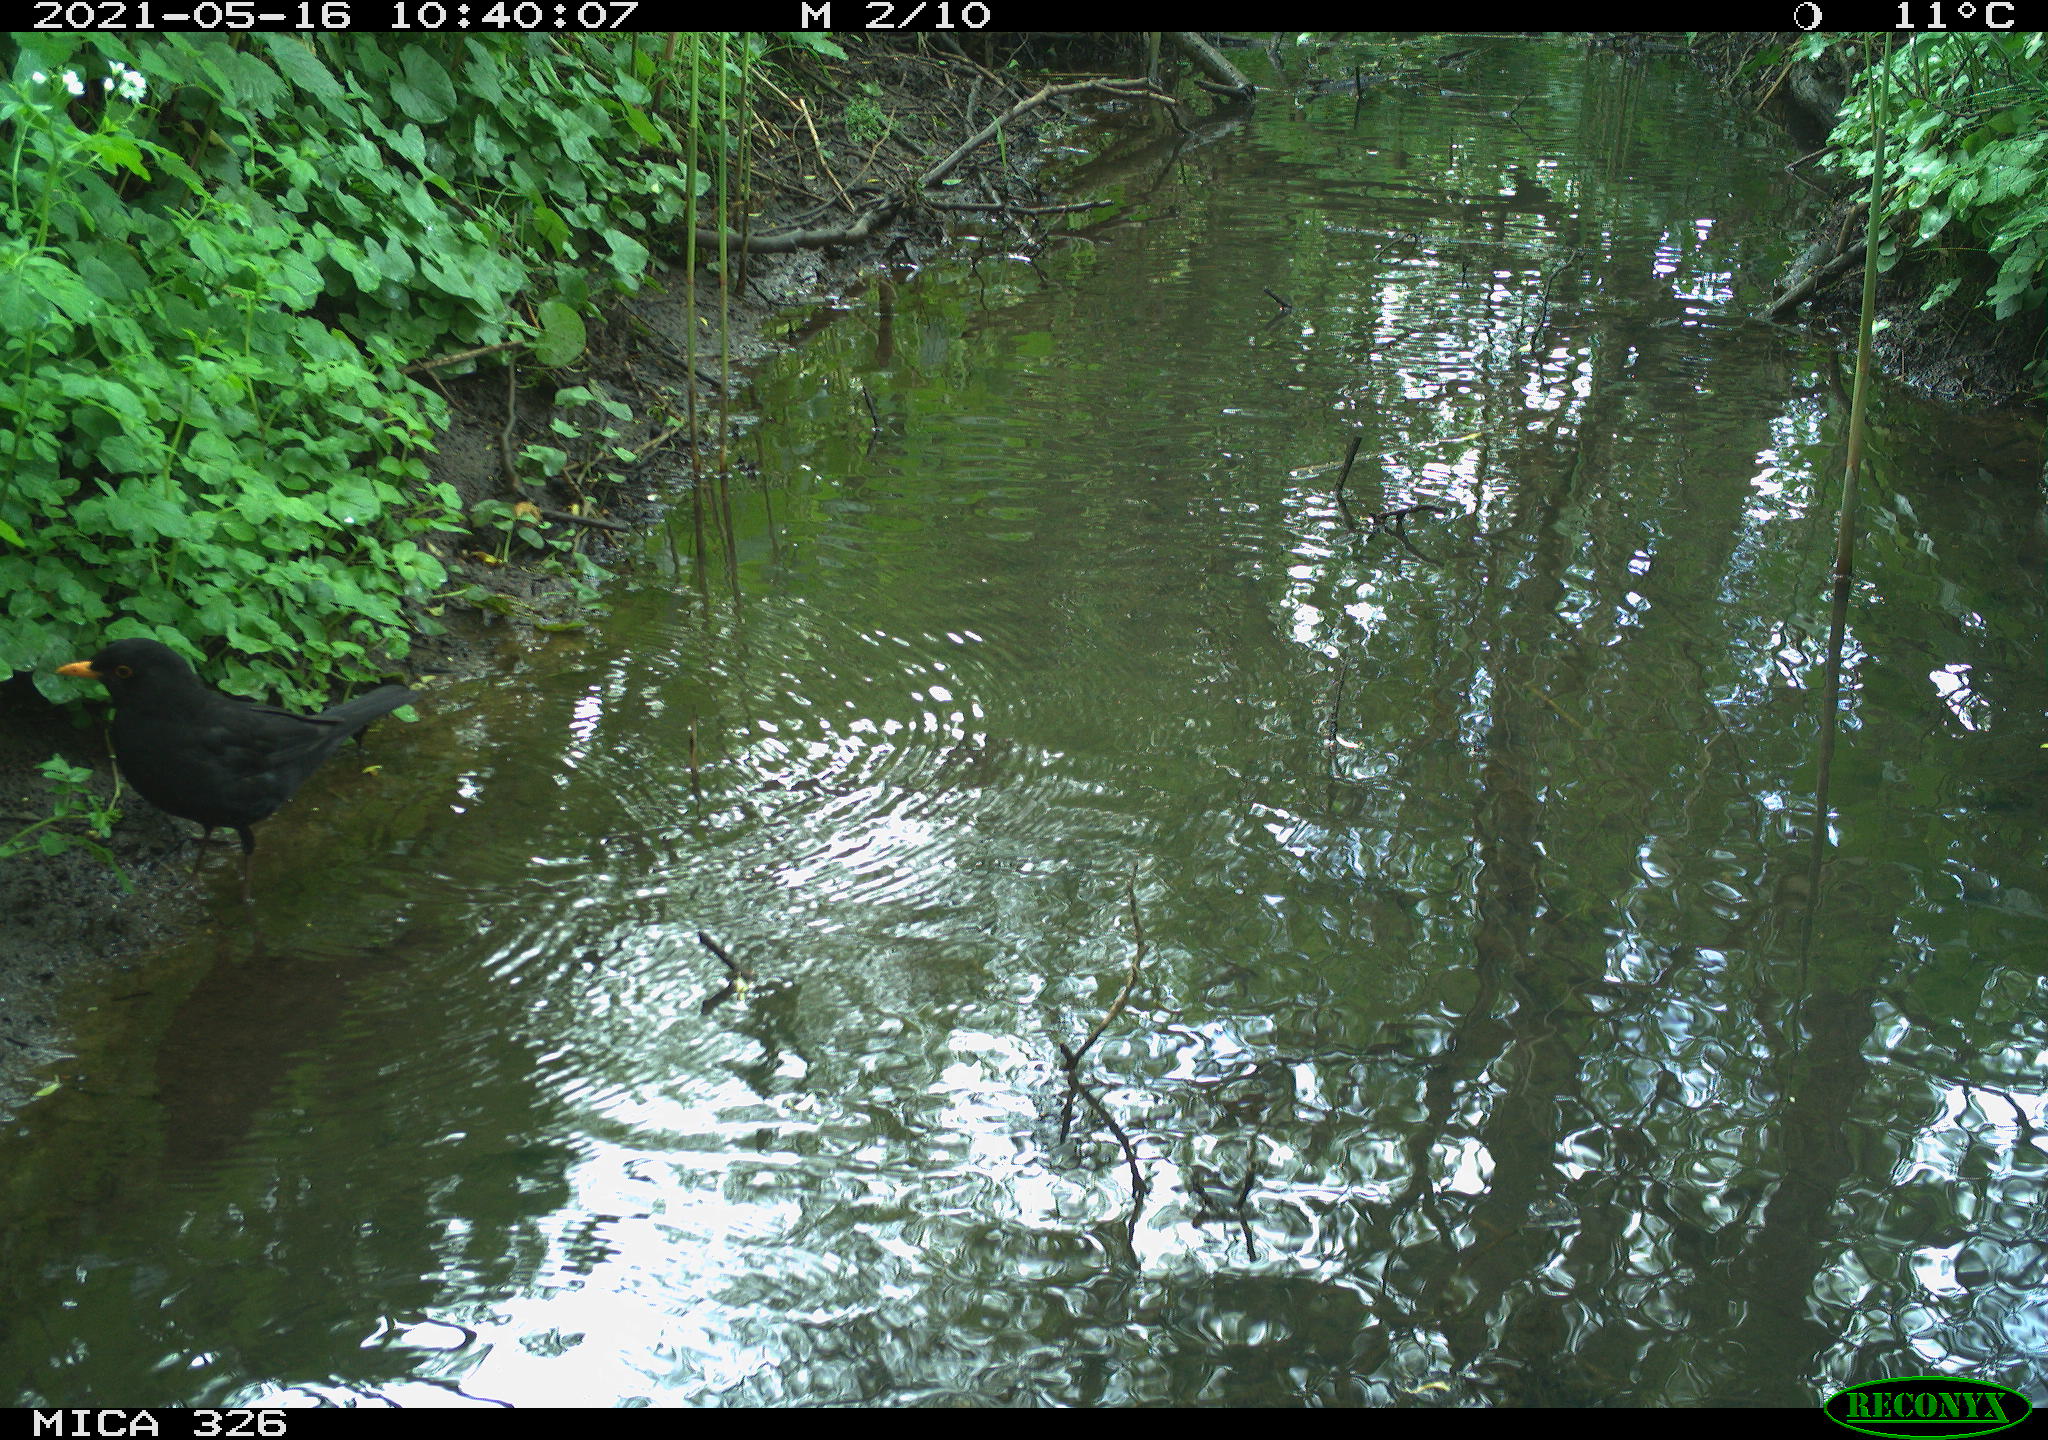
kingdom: Animalia
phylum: Chordata
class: Aves
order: Passeriformes
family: Turdidae
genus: Turdus
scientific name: Turdus merula
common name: Common blackbird
